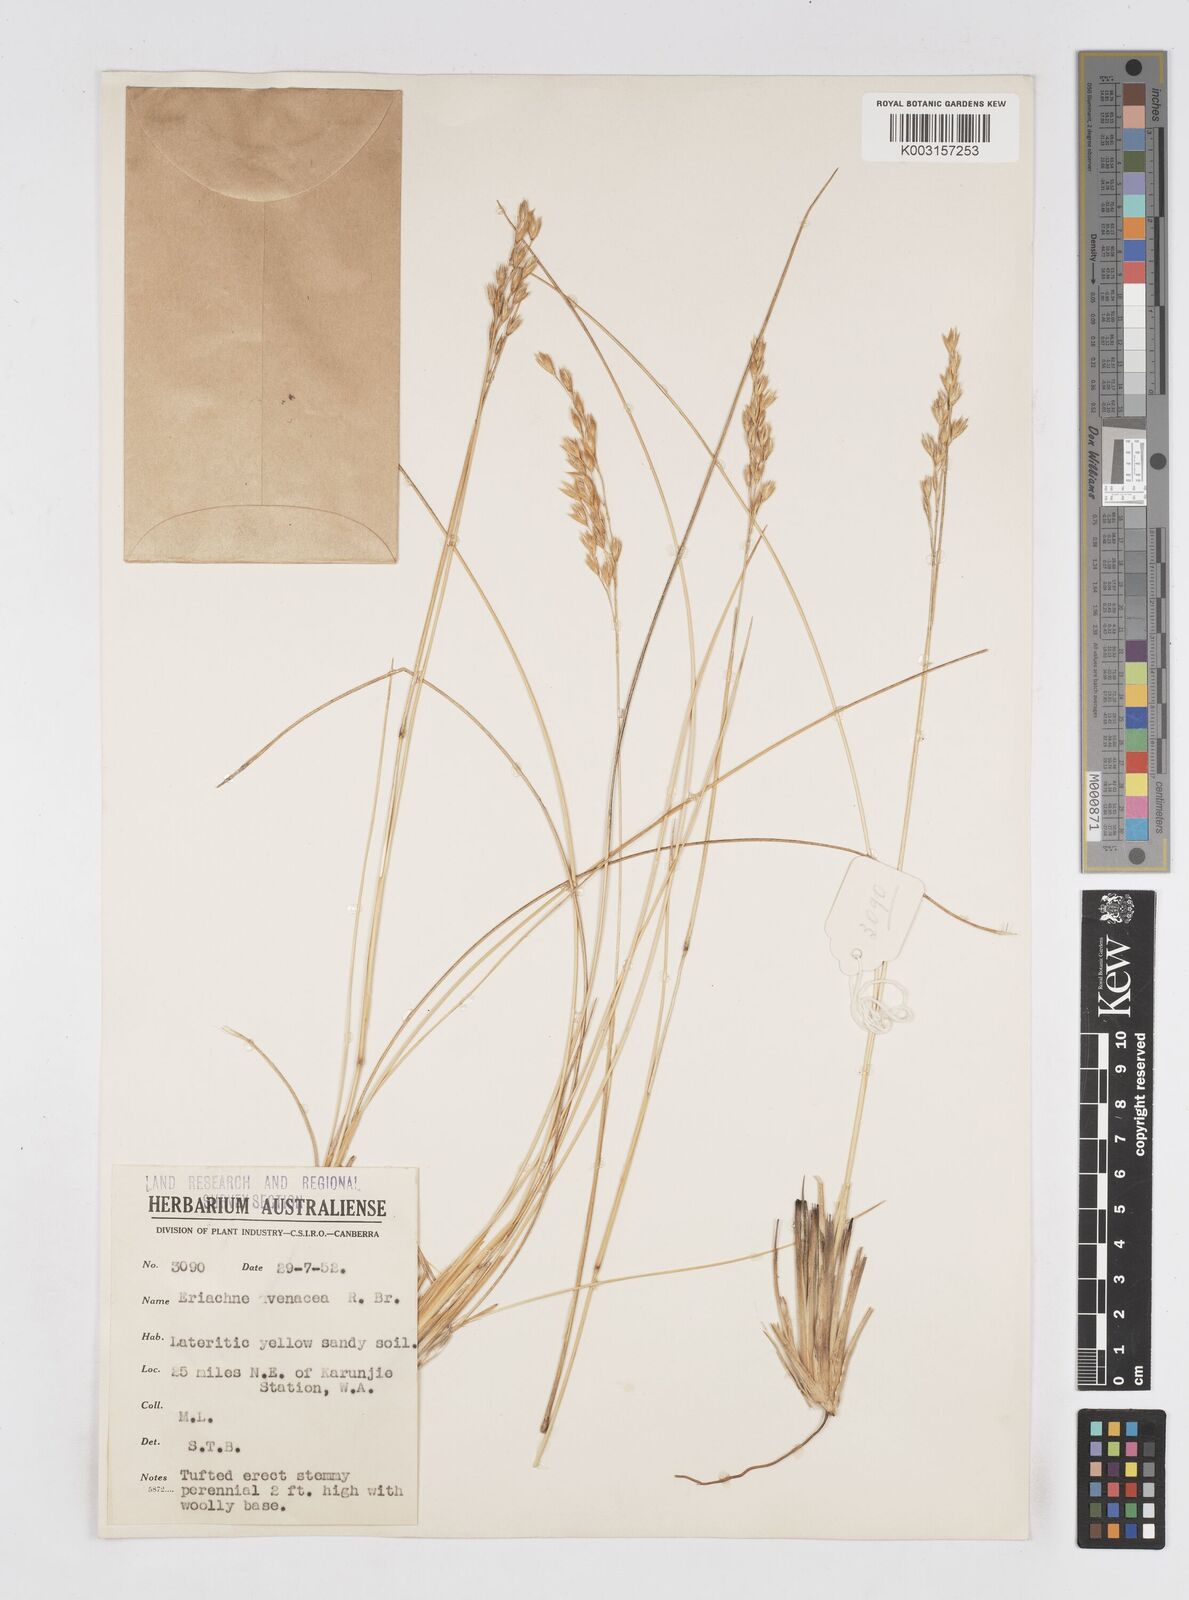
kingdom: Plantae
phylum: Tracheophyta
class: Liliopsida
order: Poales
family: Poaceae
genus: Eriachne
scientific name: Eriachne avenacea
